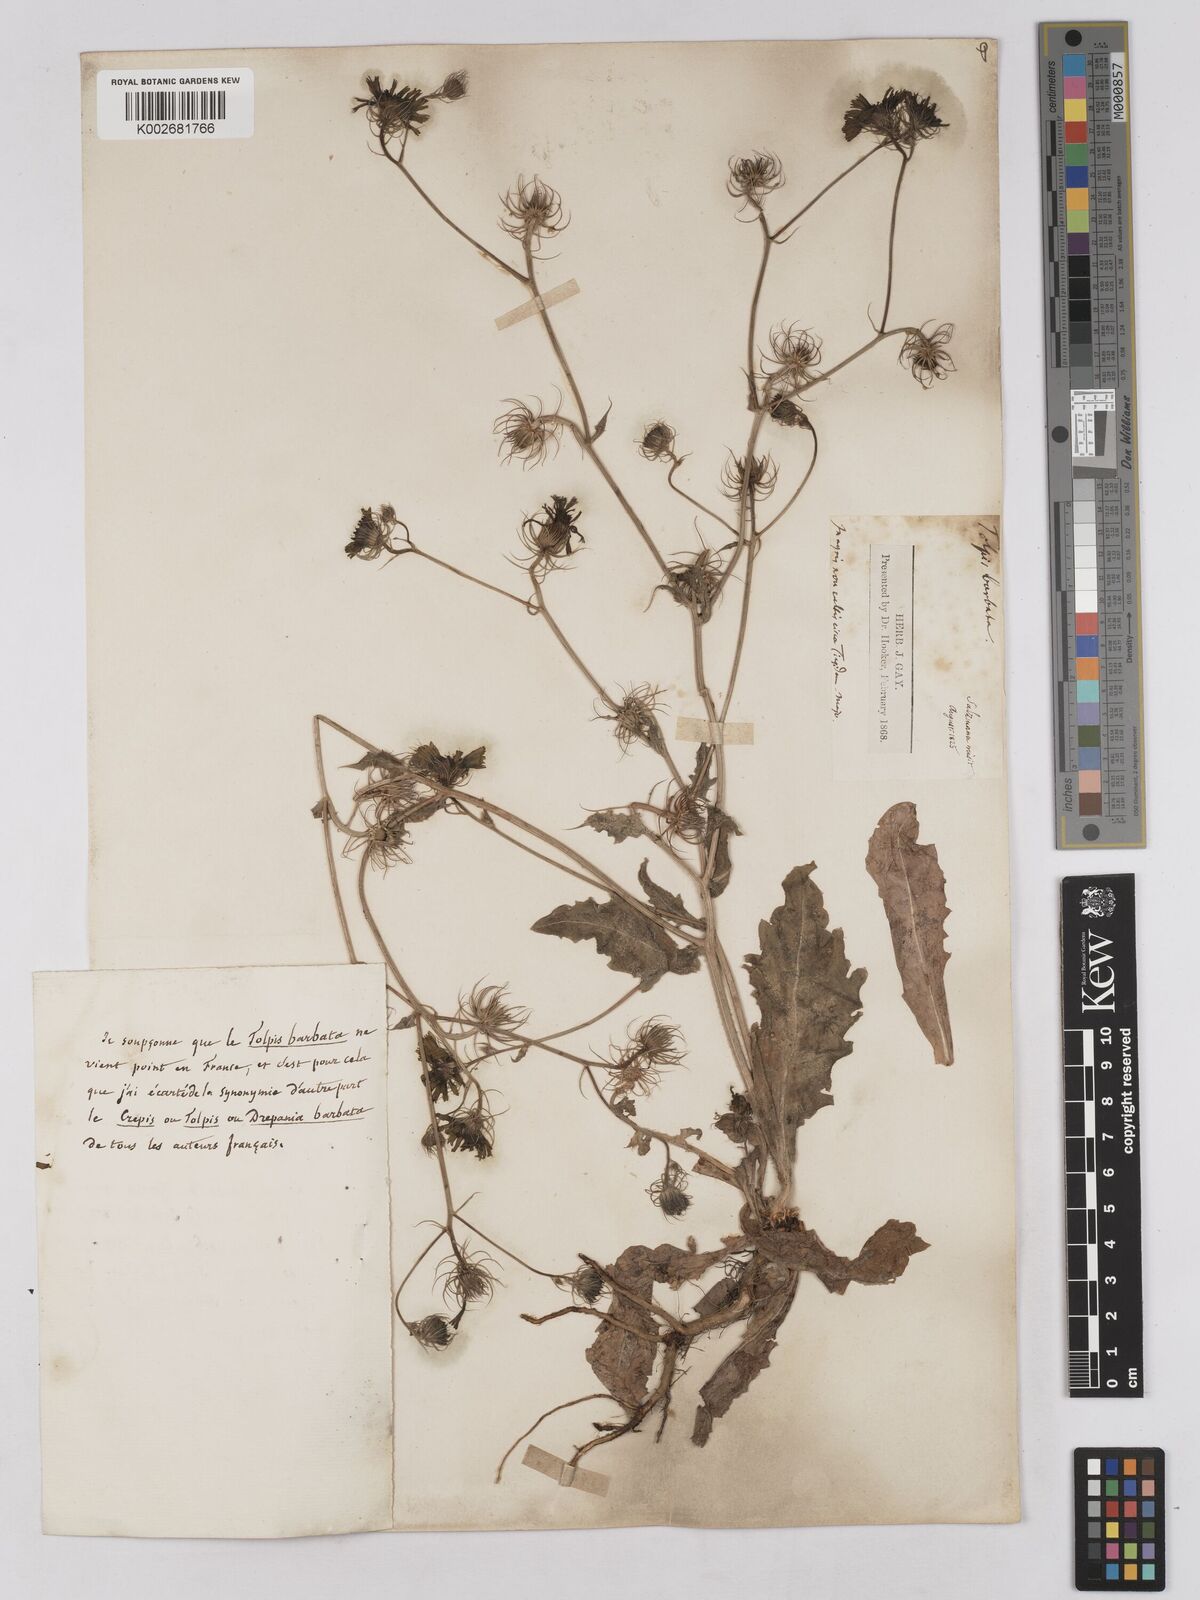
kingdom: Plantae
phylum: Tracheophyta
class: Magnoliopsida
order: Asterales
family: Asteraceae
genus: Tolpis
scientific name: Tolpis barbata
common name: Yellow hawkweed
